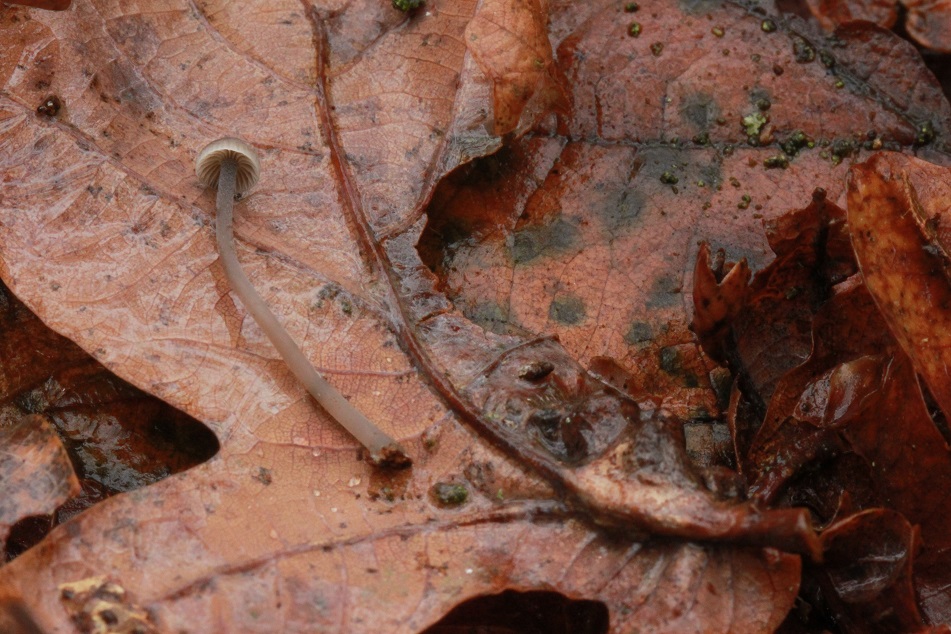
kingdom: Fungi
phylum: Basidiomycota
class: Agaricomycetes
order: Agaricales
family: Mycenaceae
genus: Mycena
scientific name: Mycena cinerella
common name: mel-huesvamp
